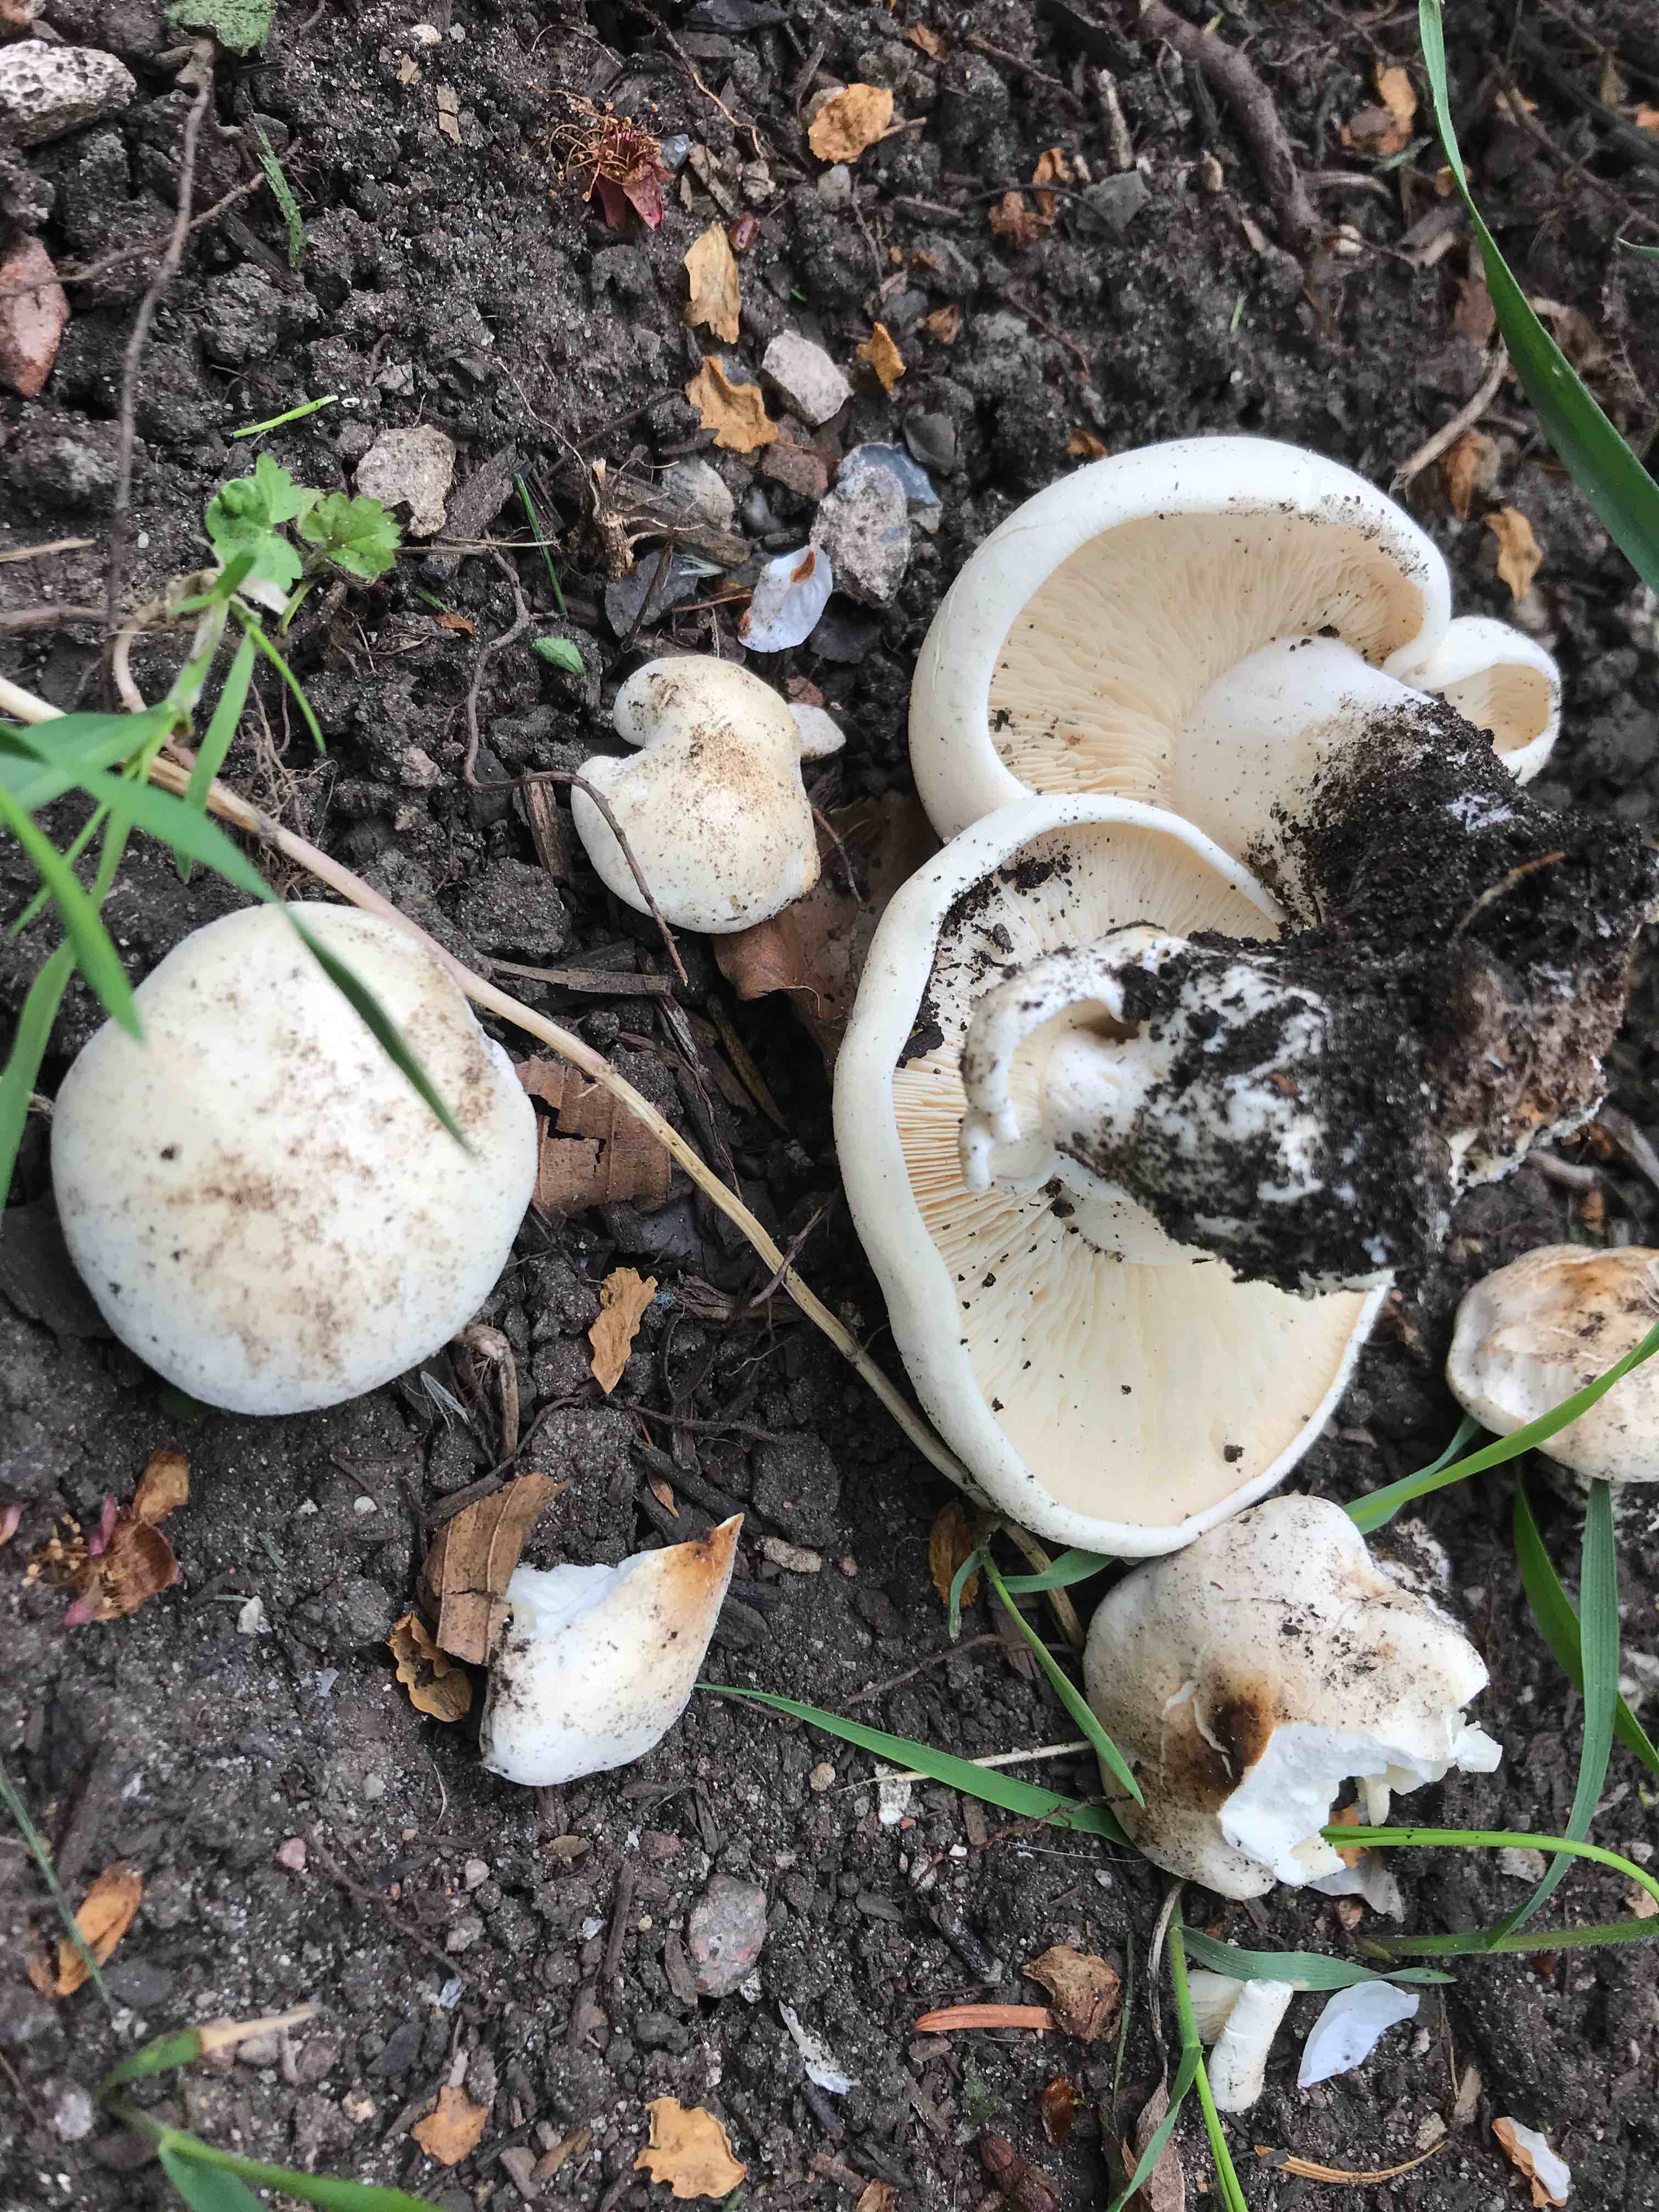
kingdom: Fungi
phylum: Basidiomycota
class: Agaricomycetes
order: Agaricales
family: Lyophyllaceae
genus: Calocybe
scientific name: Calocybe gambosa
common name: vårmusseron
